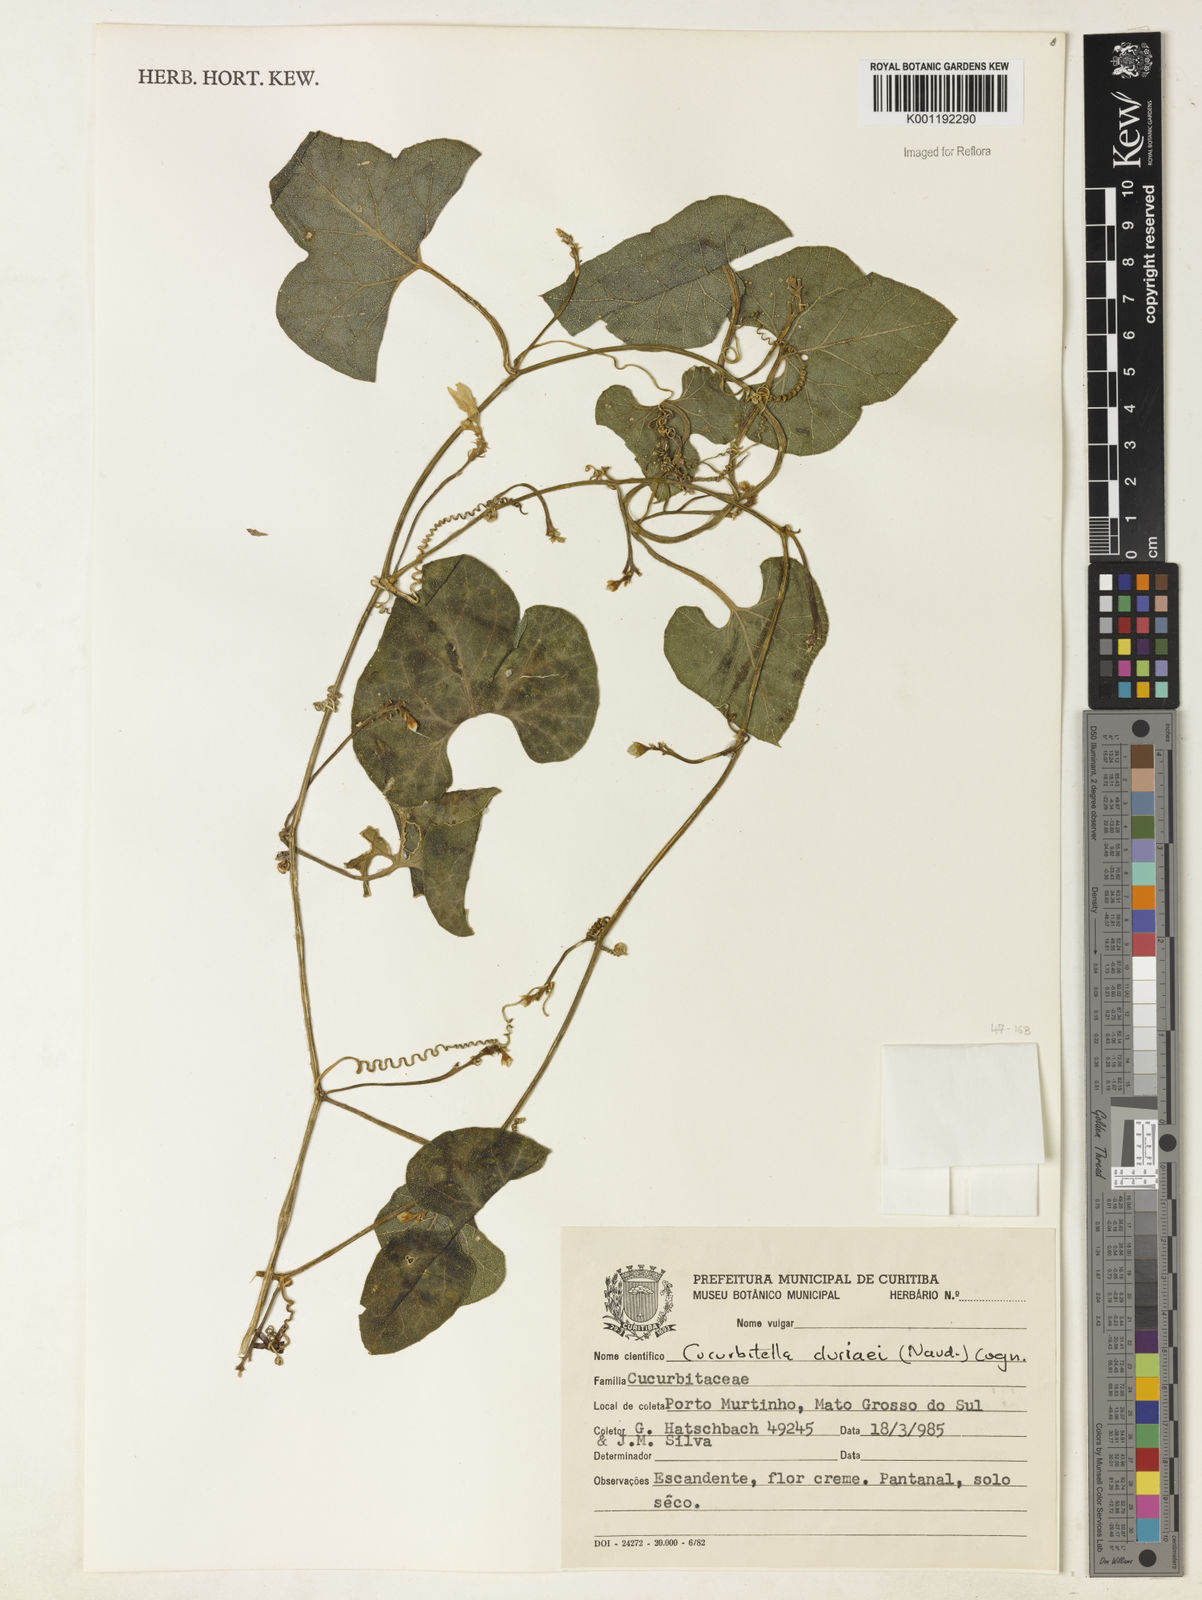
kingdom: Plantae
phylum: Tracheophyta
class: Magnoliopsida
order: Cucurbitales
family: Cucurbitaceae
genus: Cucurbitella
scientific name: Cucurbitella asperata
